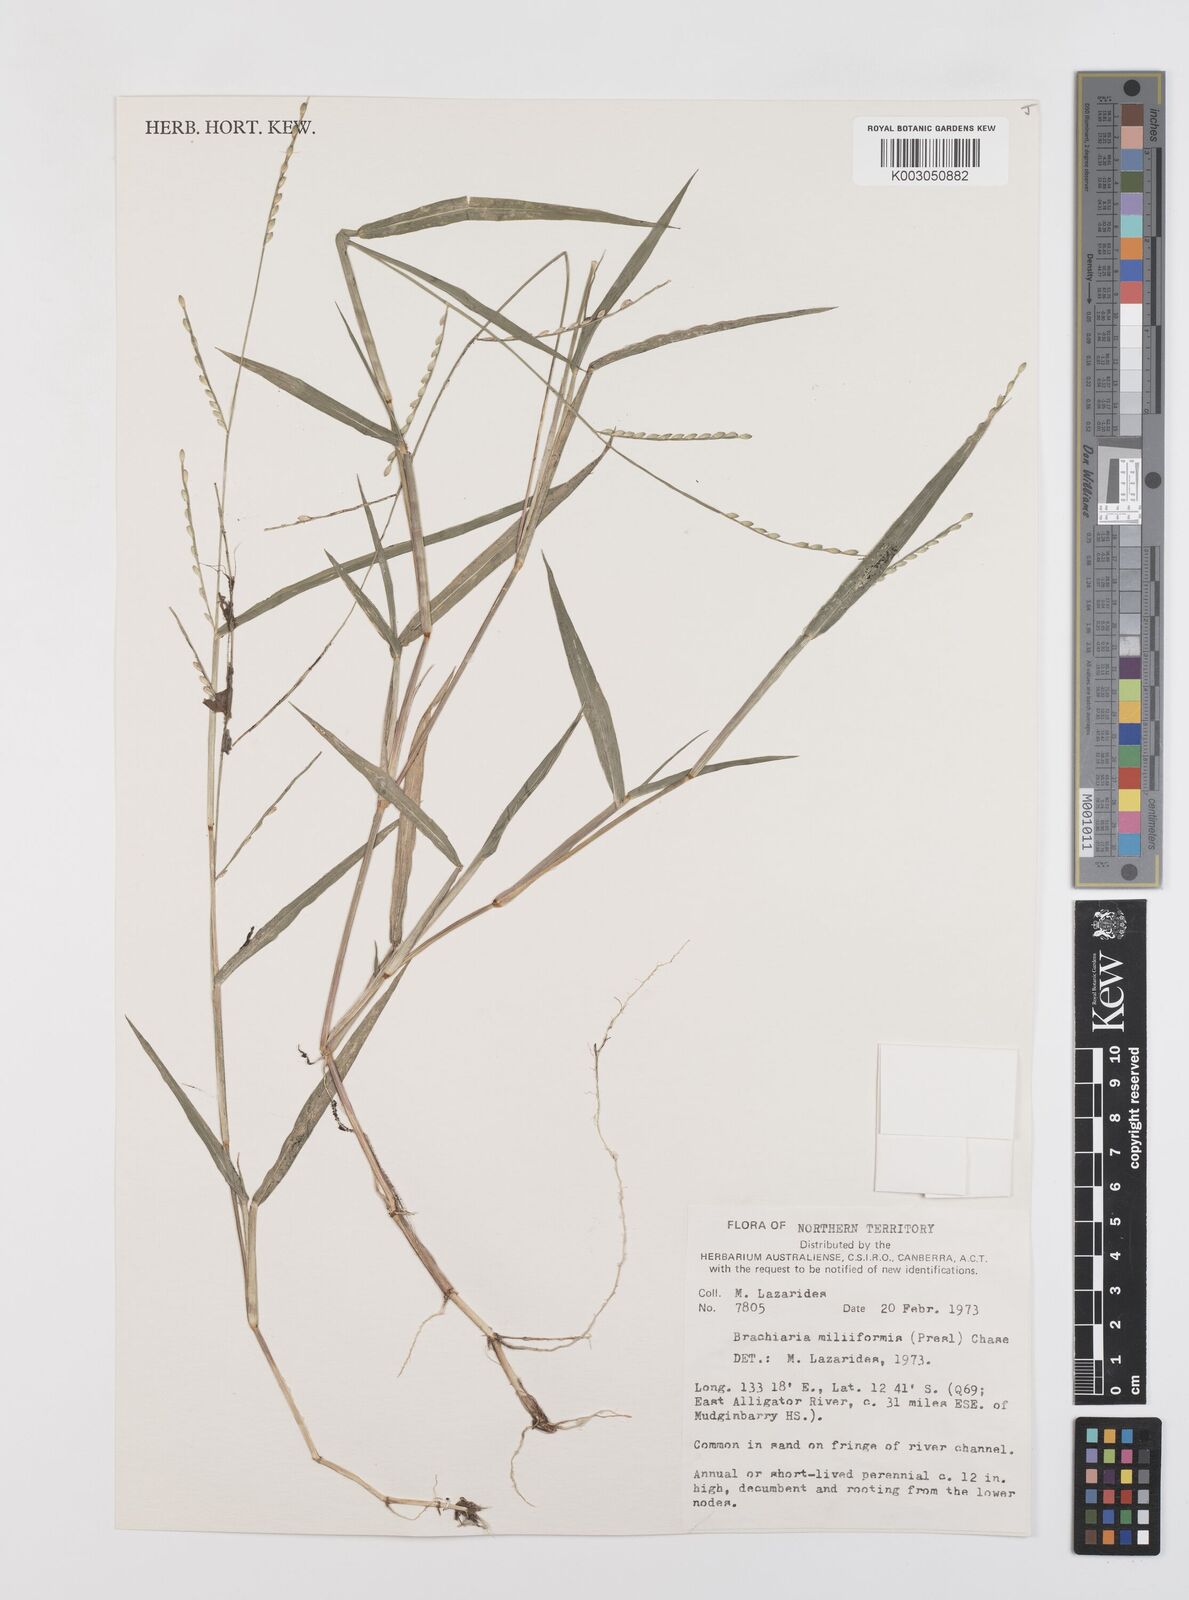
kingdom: Plantae
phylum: Tracheophyta
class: Liliopsida
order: Poales
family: Poaceae
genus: Urochloa
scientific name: Urochloa subquadripara
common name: Armgrass millet
